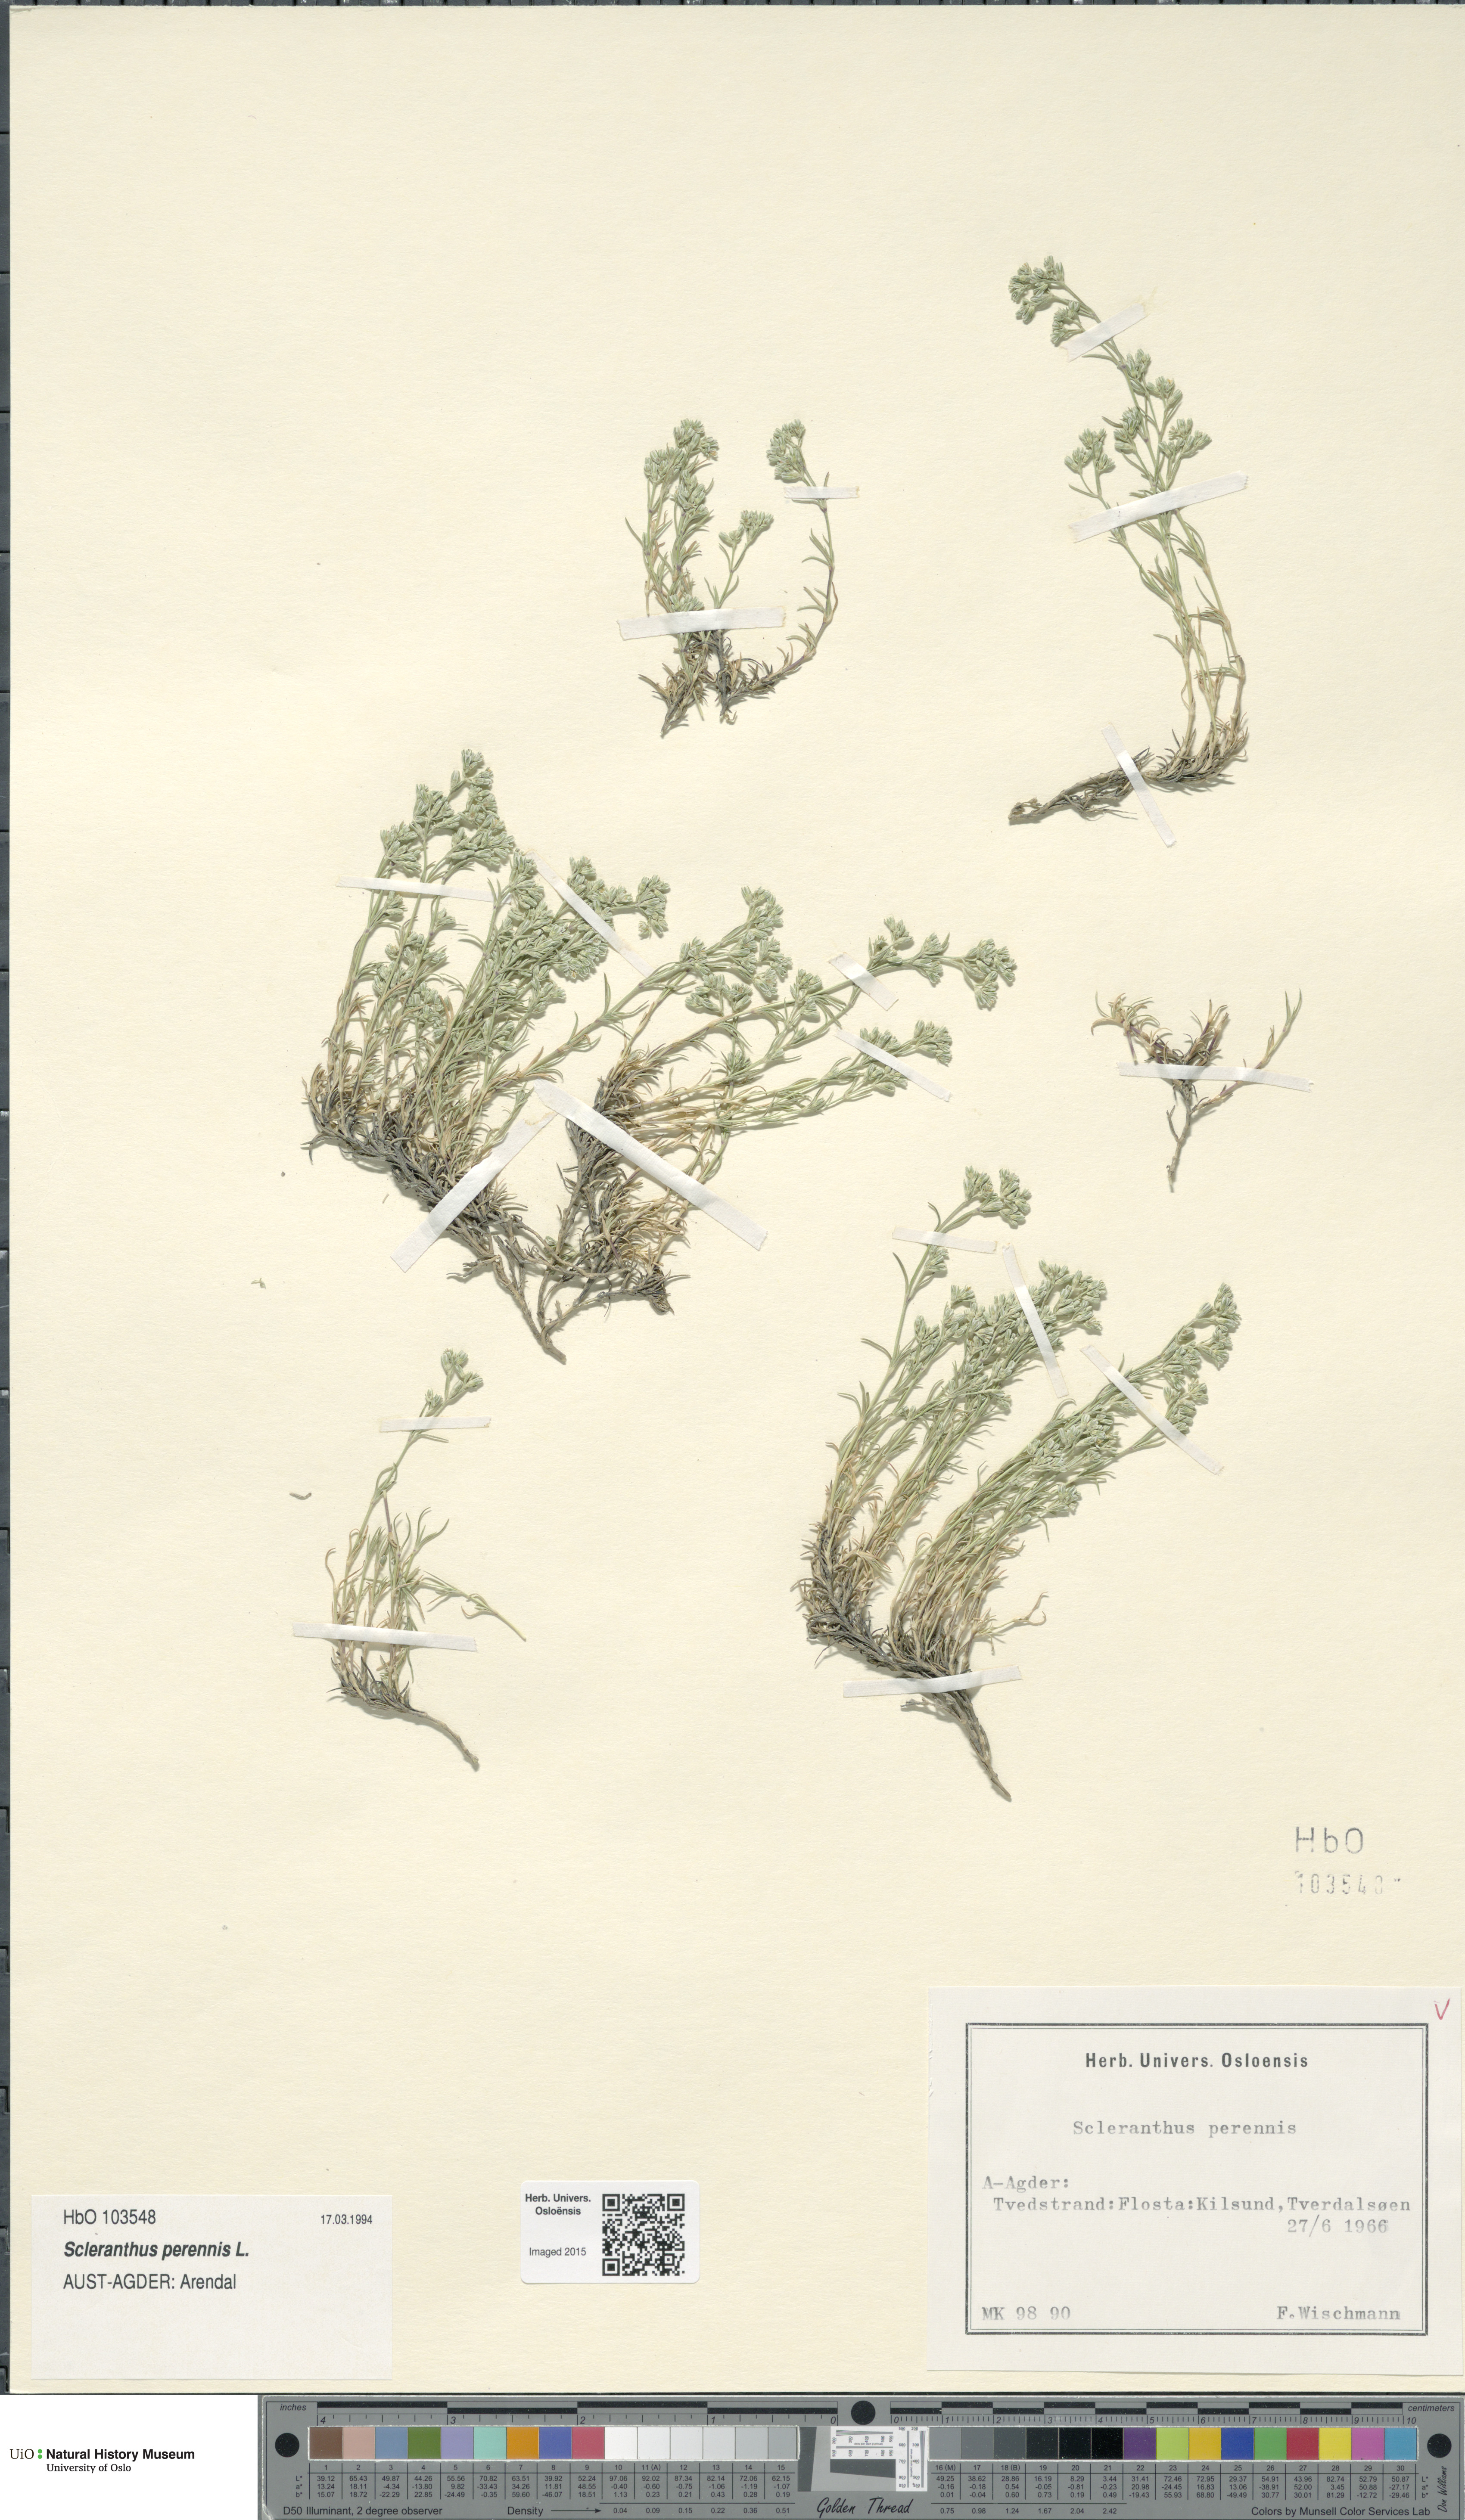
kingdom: Plantae
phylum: Tracheophyta
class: Magnoliopsida
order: Caryophyllales
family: Caryophyllaceae
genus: Scleranthus
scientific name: Scleranthus perennis
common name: Perennial knawel
